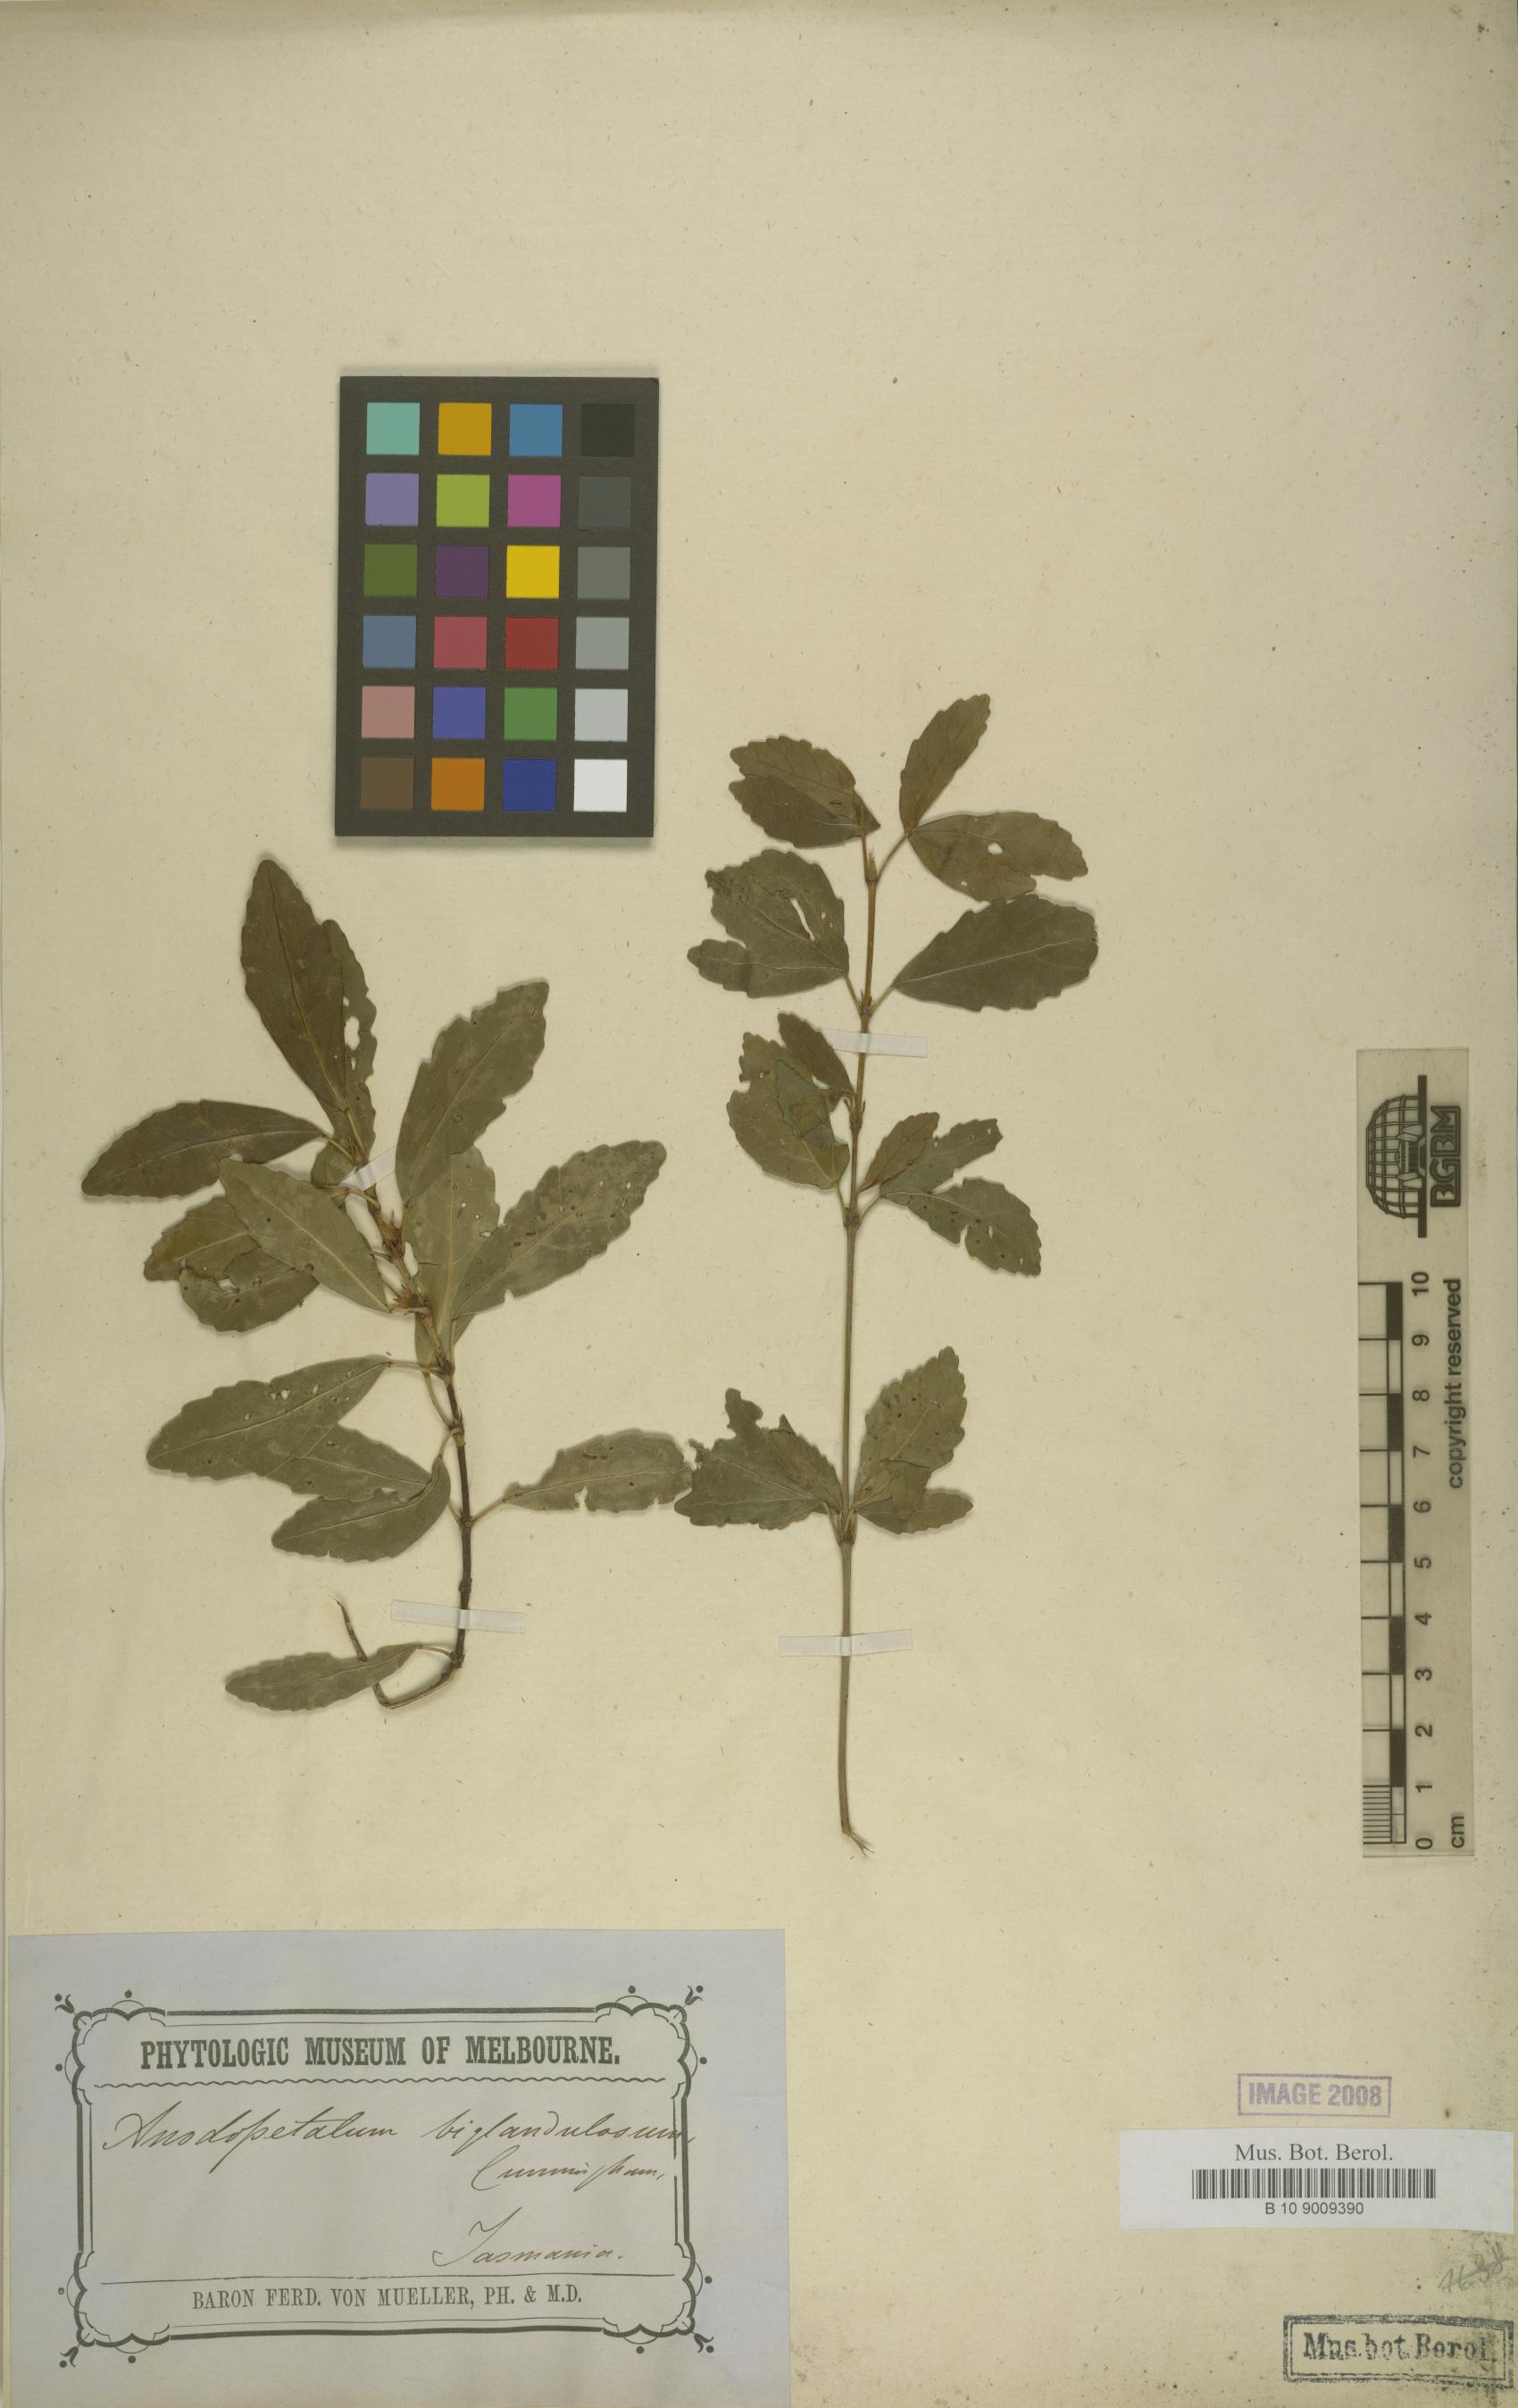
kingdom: Plantae
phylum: Tracheophyta
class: Magnoliopsida
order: Oxalidales
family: Cunoniaceae
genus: Anodopetalum
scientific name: Anodopetalum biglandulosum
